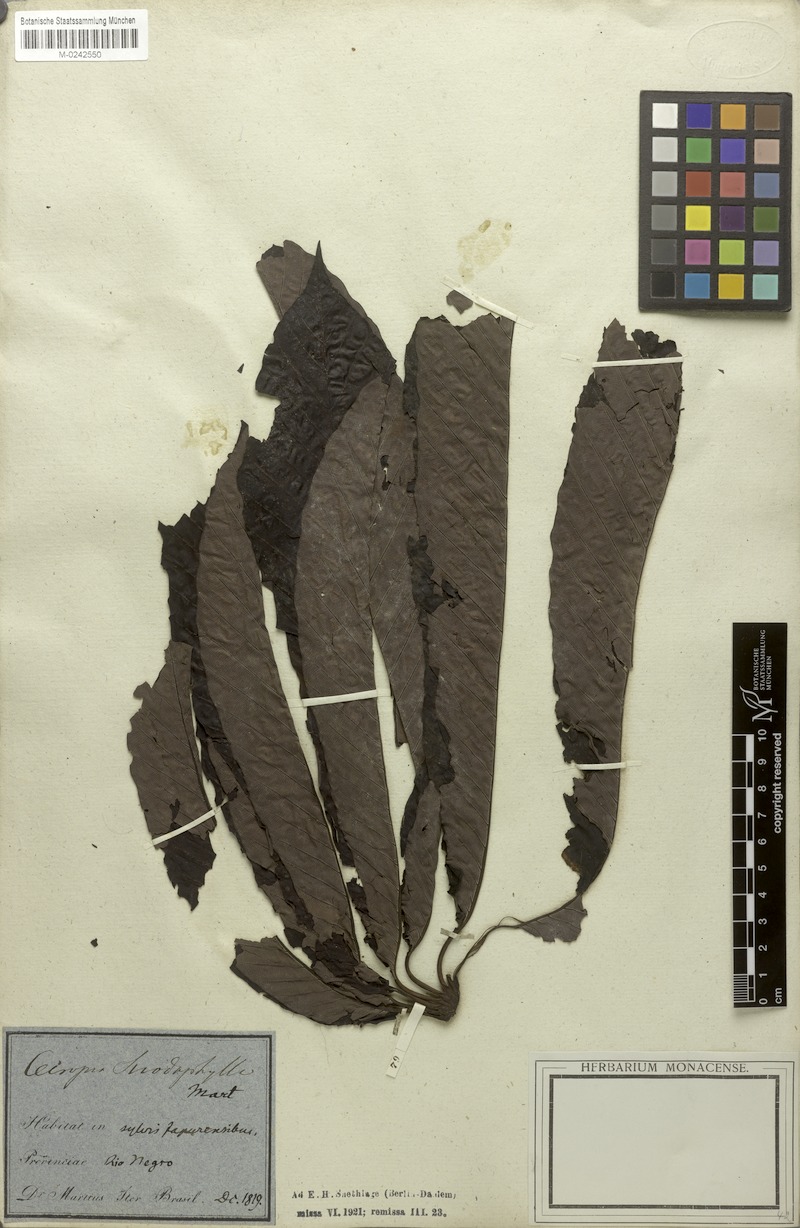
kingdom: Plantae
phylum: Tracheophyta
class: Magnoliopsida
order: Rosales
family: Urticaceae
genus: Cecropia
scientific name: Cecropia sciadophylla
